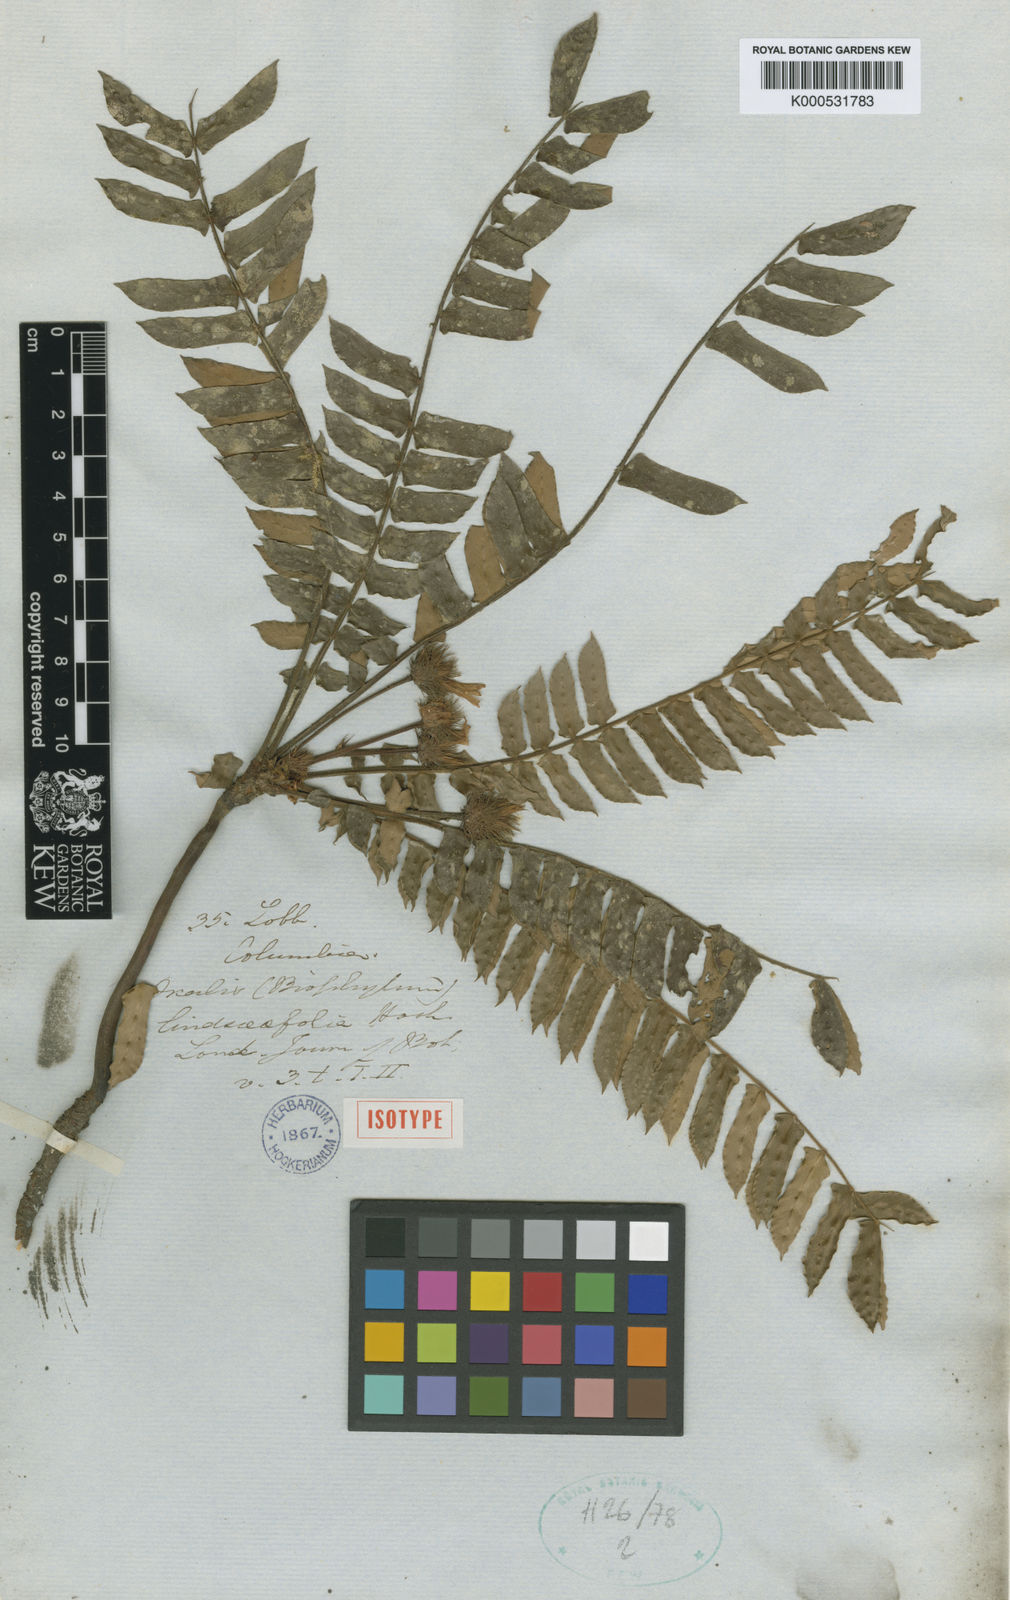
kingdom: Plantae
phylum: Tracheophyta
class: Magnoliopsida
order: Oxalidales
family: Oxalidaceae
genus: Biophytum
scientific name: Biophytum lindsaeifolium
